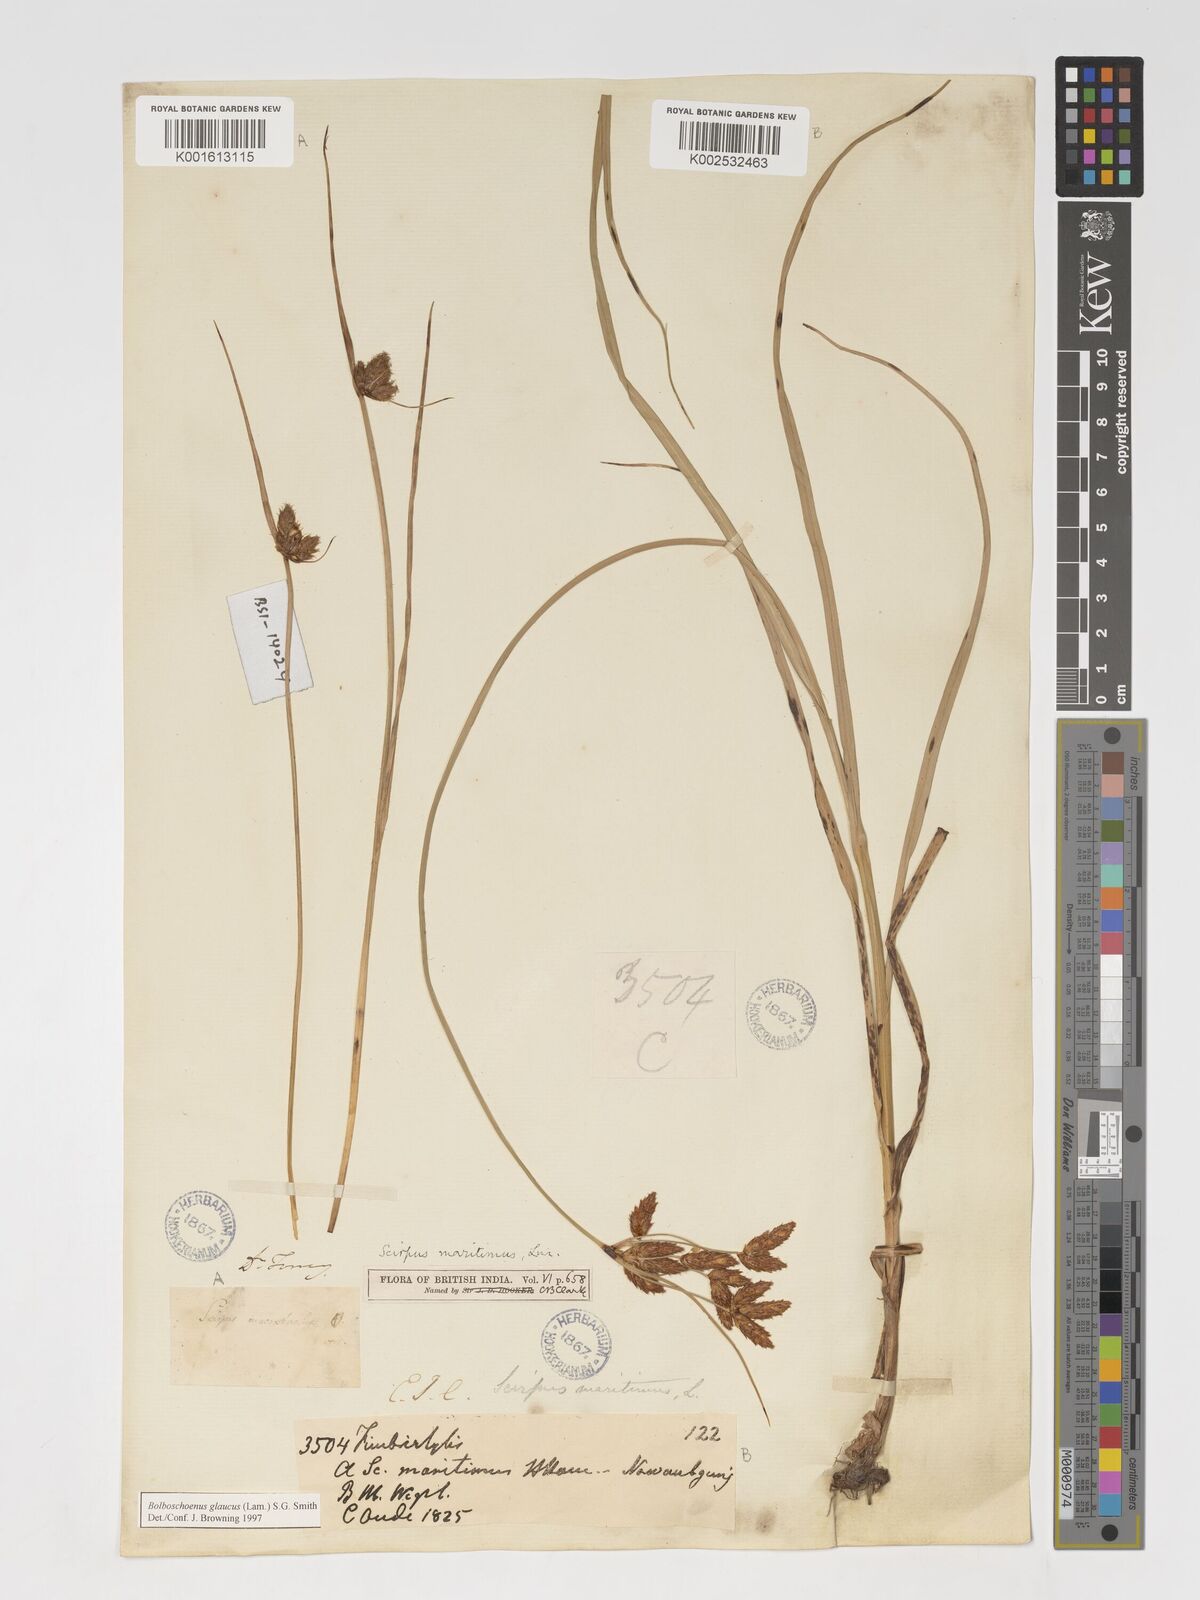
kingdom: Plantae
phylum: Tracheophyta
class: Liliopsida
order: Poales
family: Cyperaceae
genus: Bolboschoenus
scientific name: Bolboschoenus maritimus
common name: Sea club-rush
